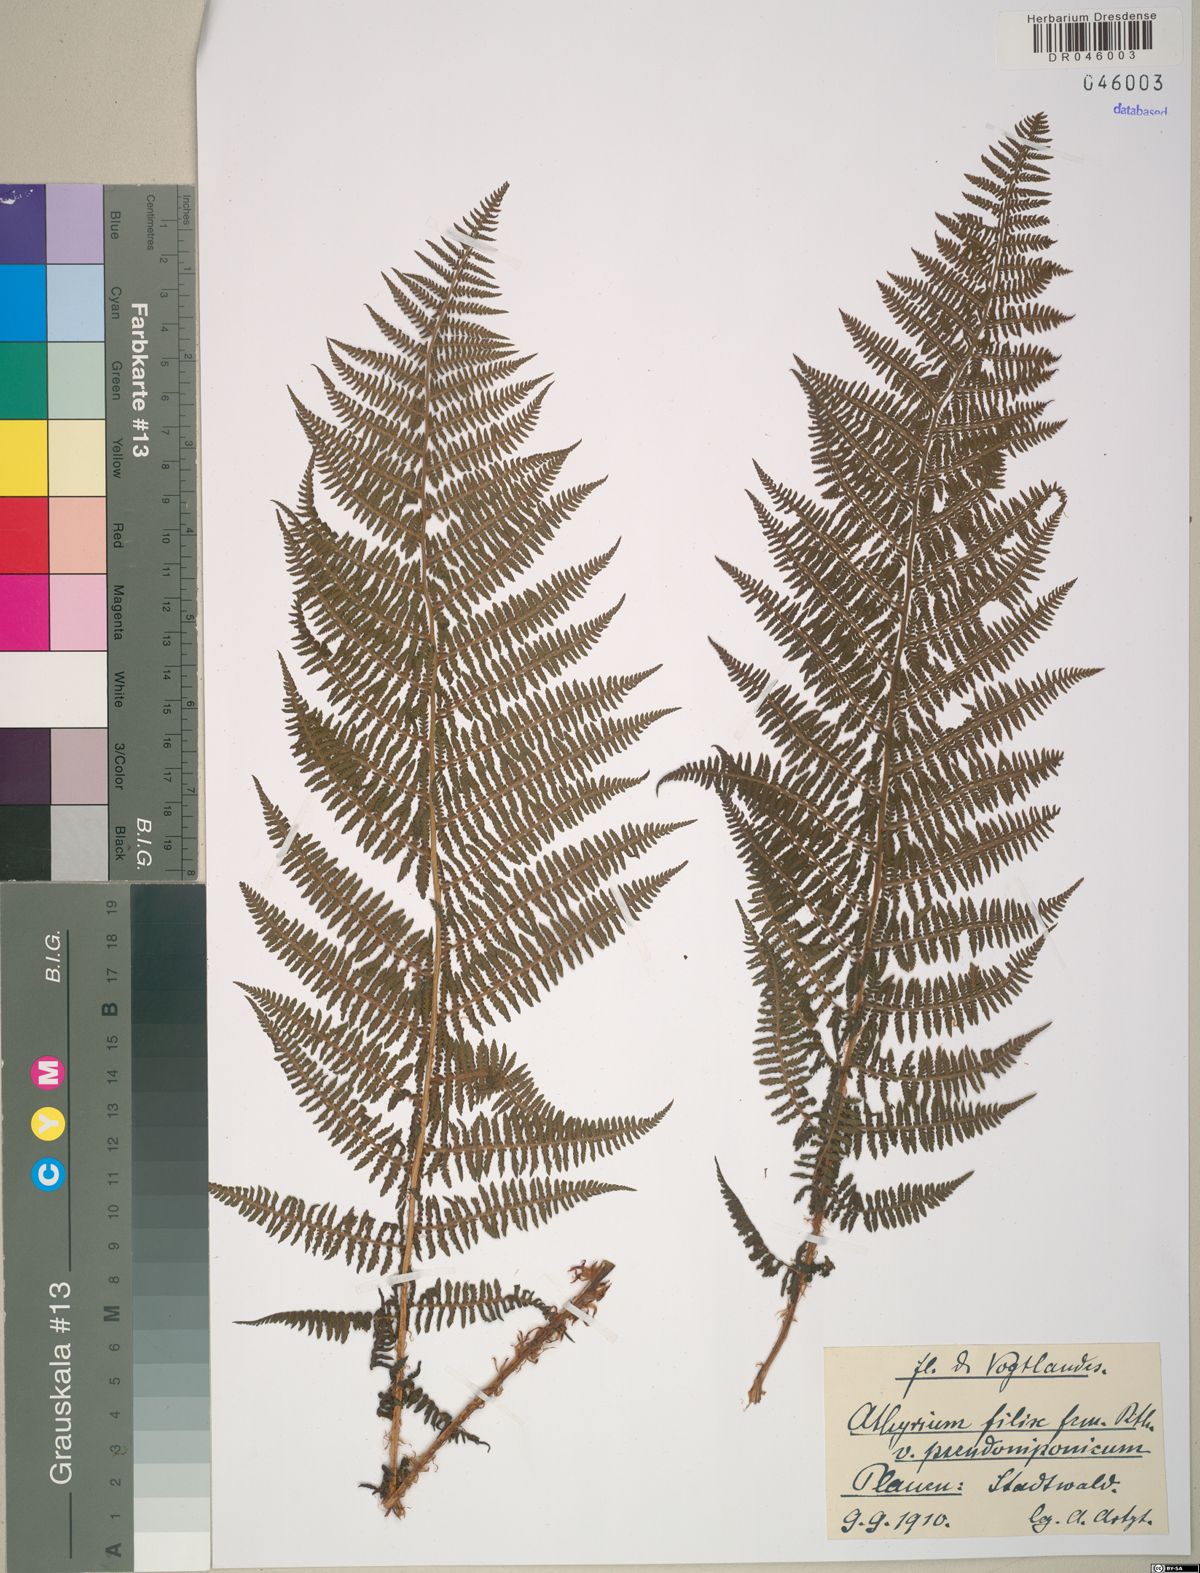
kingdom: Plantae
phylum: Tracheophyta
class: Polypodiopsida
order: Polypodiales
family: Athyriaceae
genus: Athyrium
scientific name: Athyrium filix-femina
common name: Lady fern
